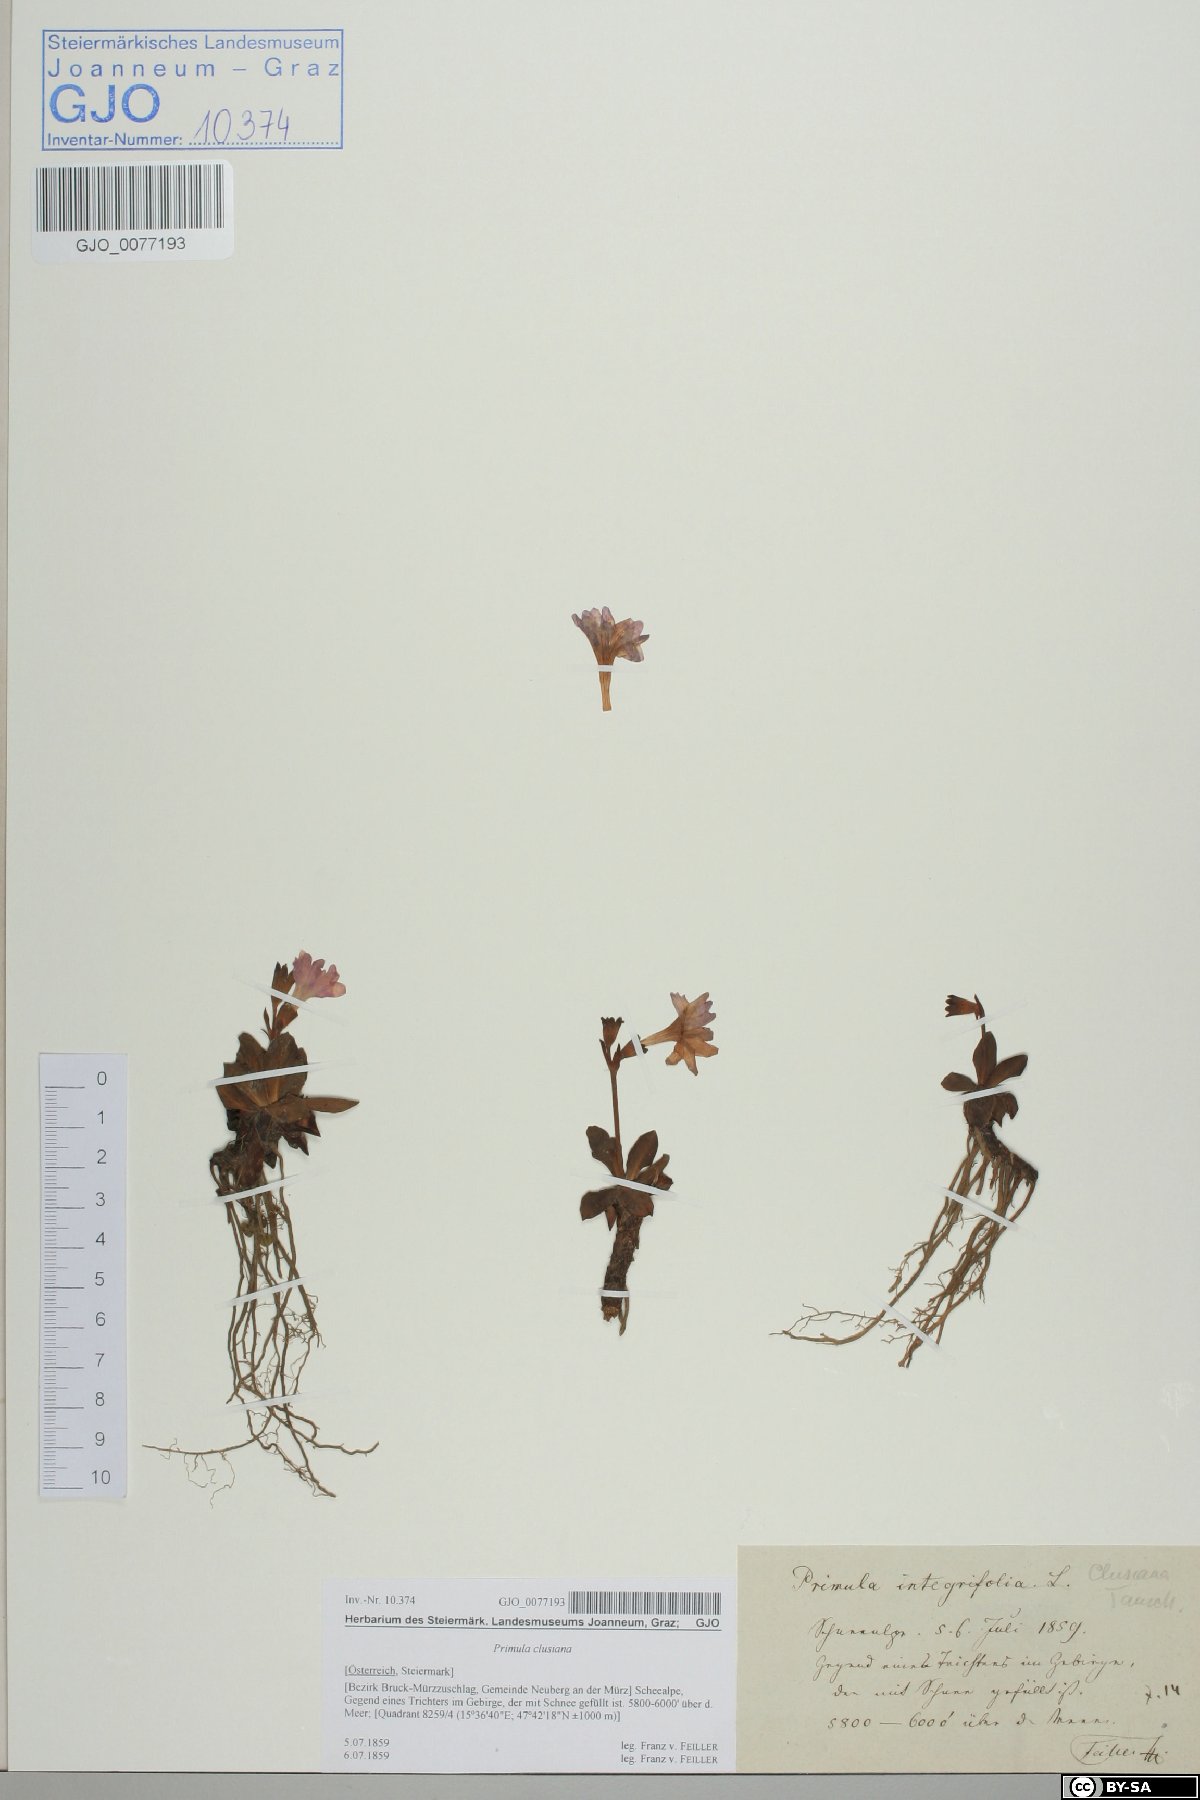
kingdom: Plantae
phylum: Tracheophyta
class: Magnoliopsida
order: Ericales
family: Primulaceae
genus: Primula
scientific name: Primula clusiana
